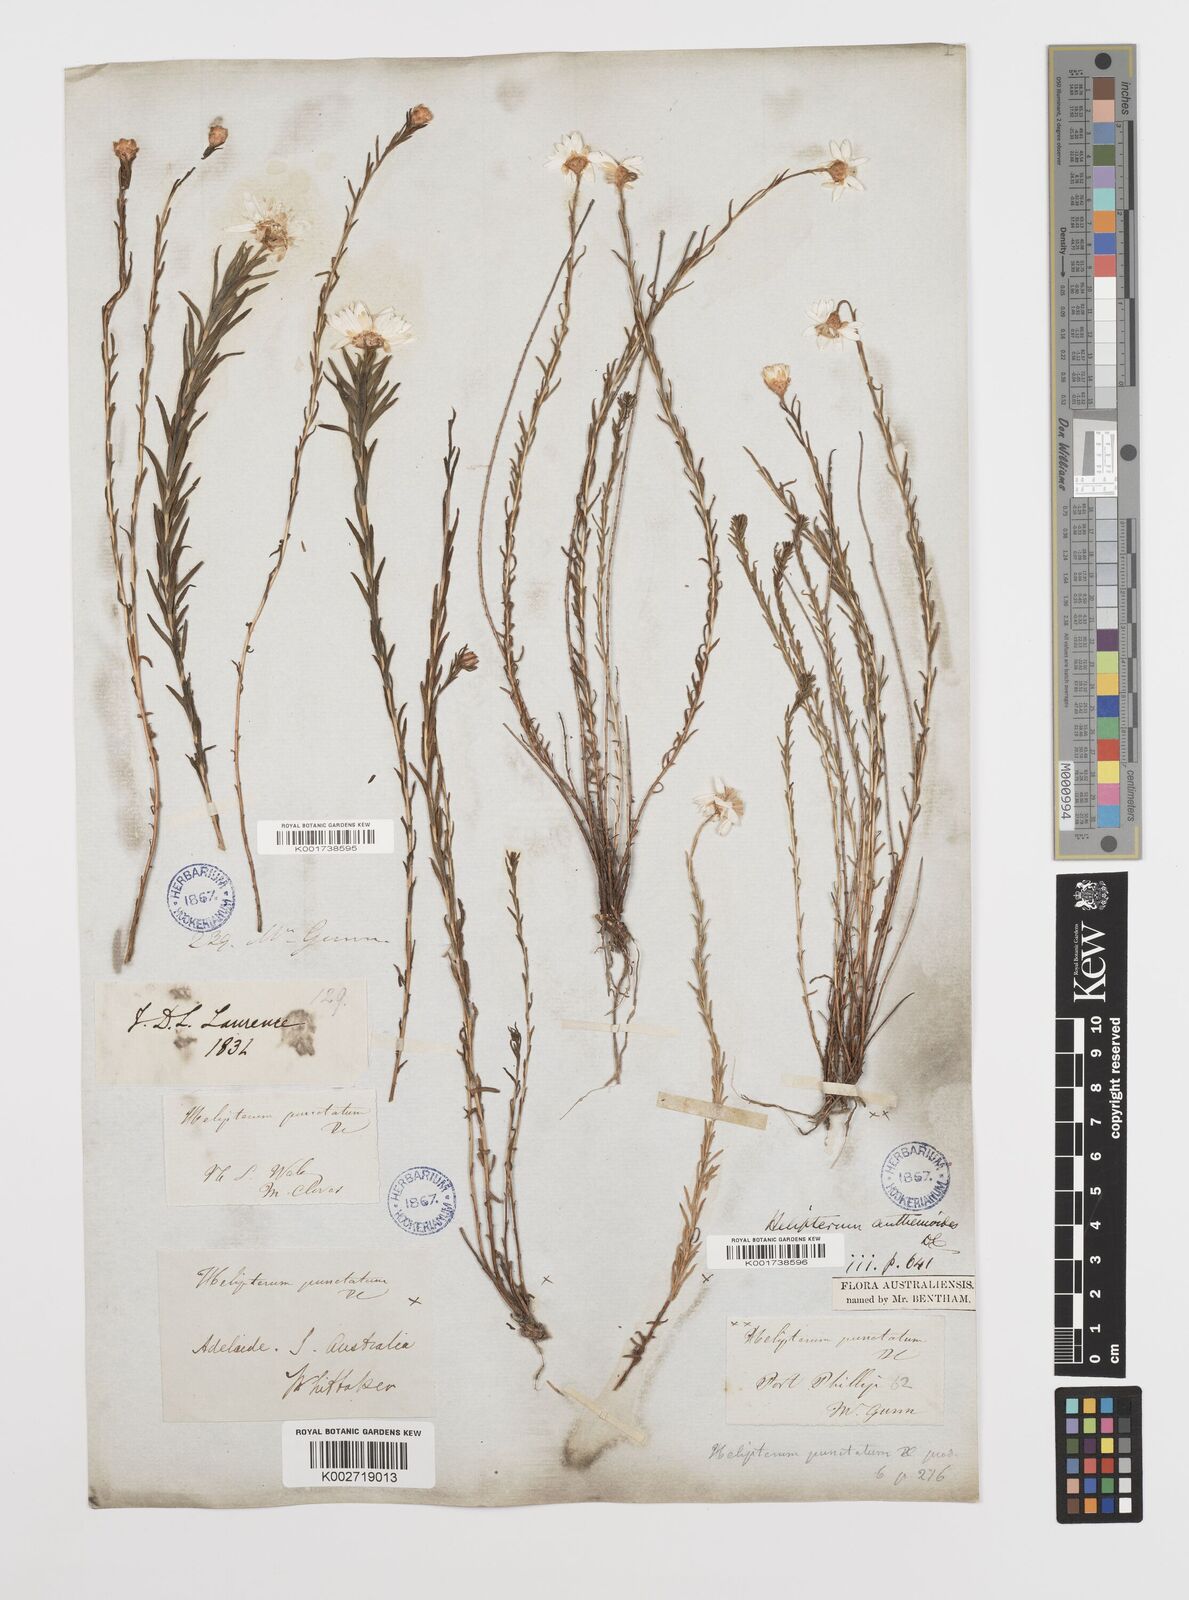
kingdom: Plantae
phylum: Tracheophyta
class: Magnoliopsida
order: Asterales
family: Asteraceae
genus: Rhodanthe
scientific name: Rhodanthe anthemoides
